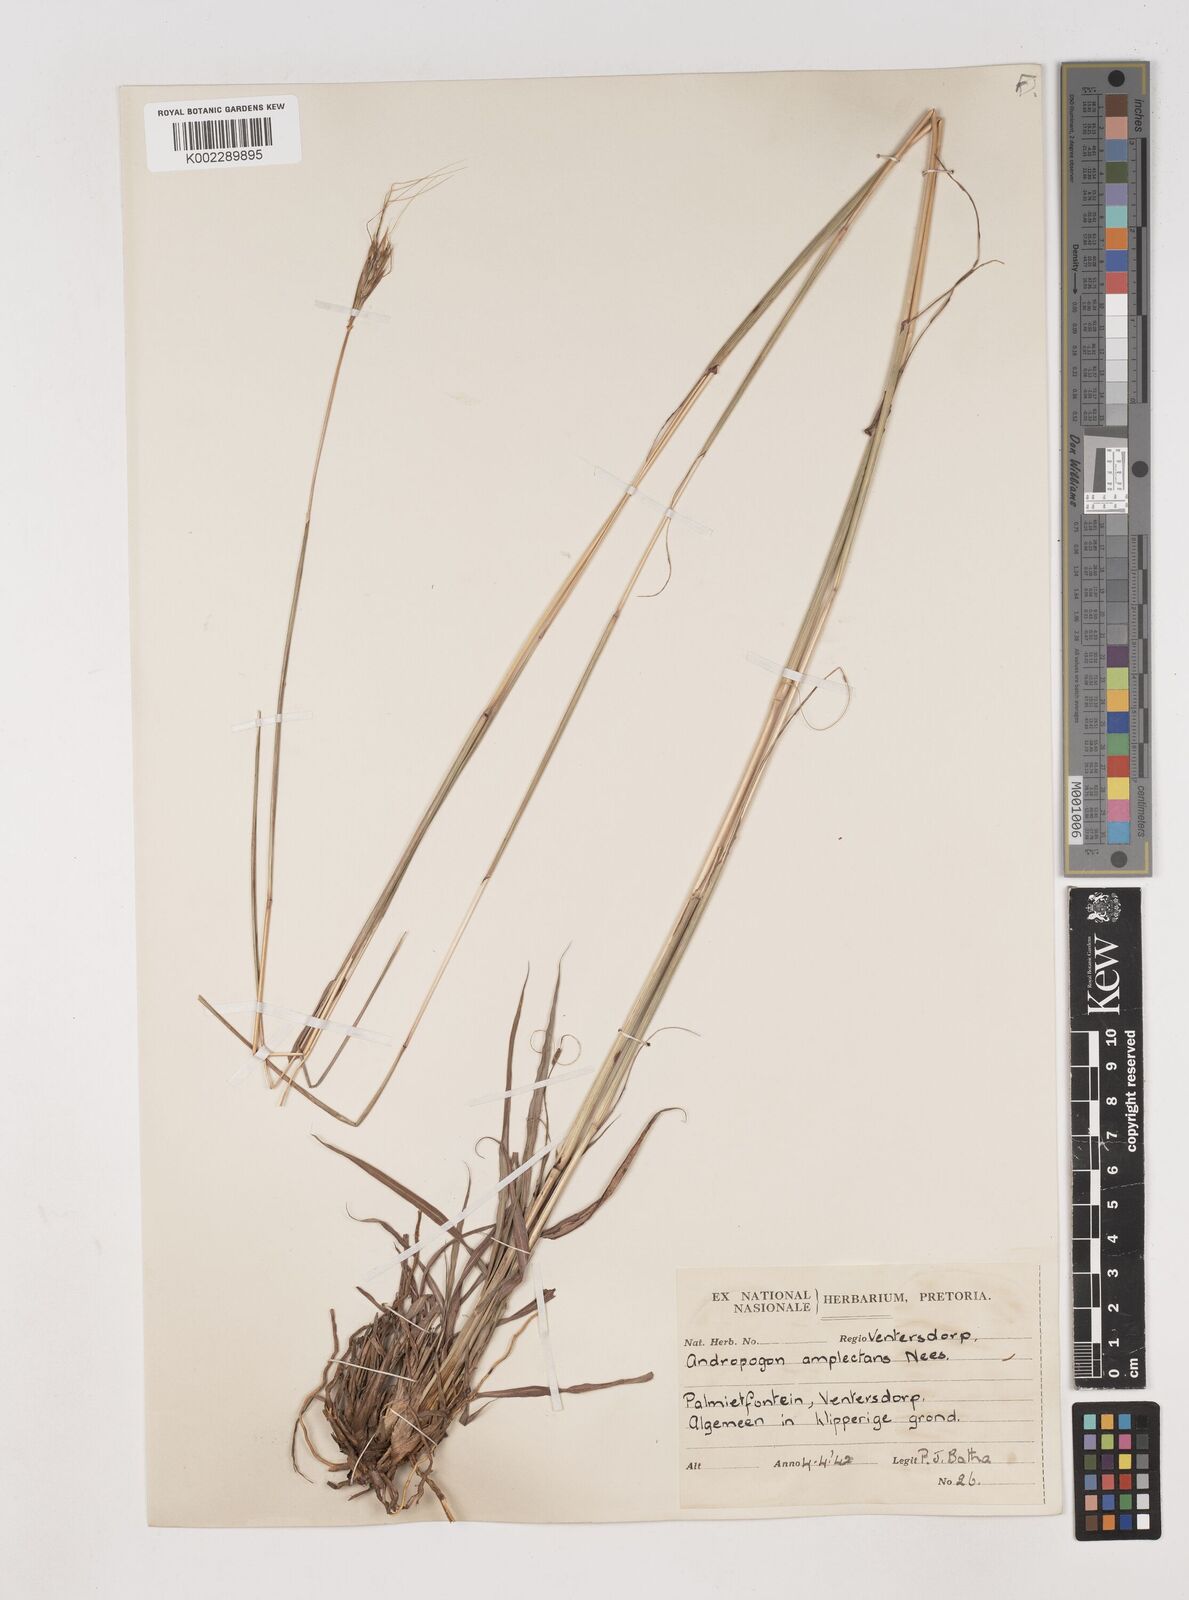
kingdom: Plantae
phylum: Tracheophyta
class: Liliopsida
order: Poales
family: Poaceae
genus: Diheteropogon
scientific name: Diheteropogon amplectens
